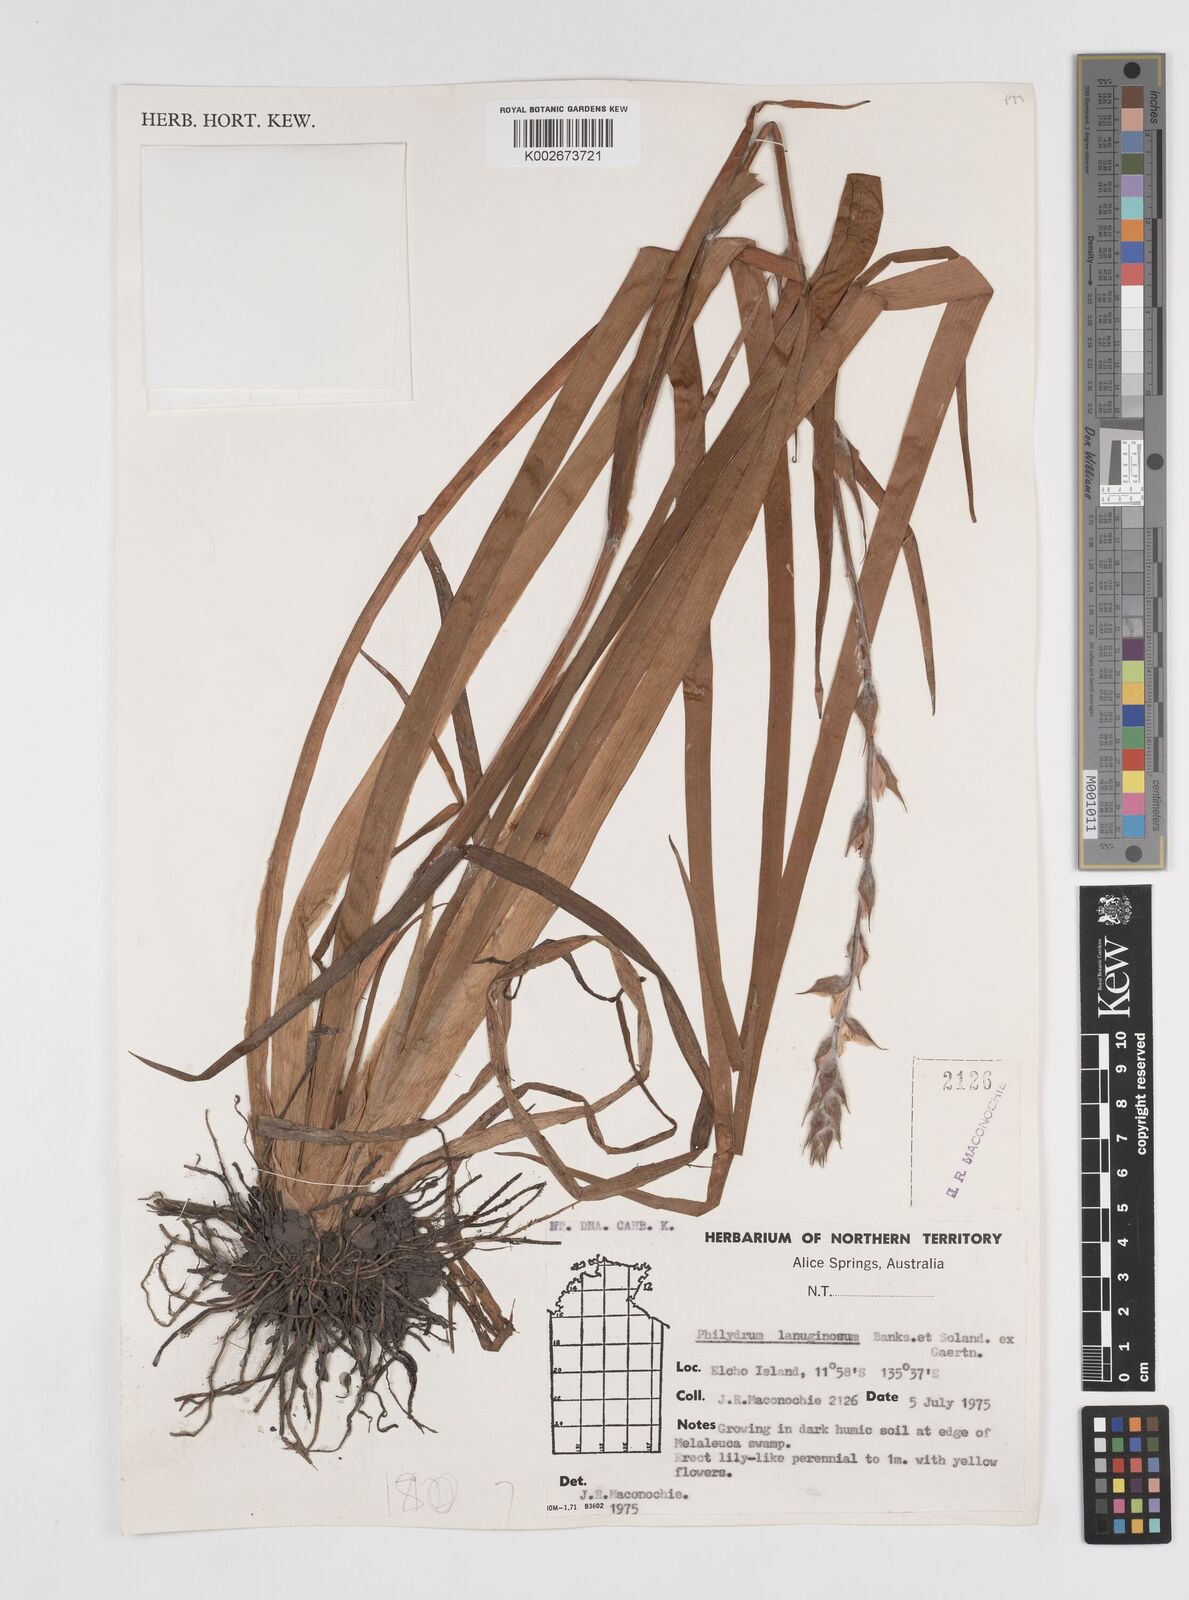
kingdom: Plantae
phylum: Tracheophyta
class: Liliopsida
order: Commelinales
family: Philydraceae
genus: Philydrum
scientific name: Philydrum lanuginosum
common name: Woolly frog's mouth
